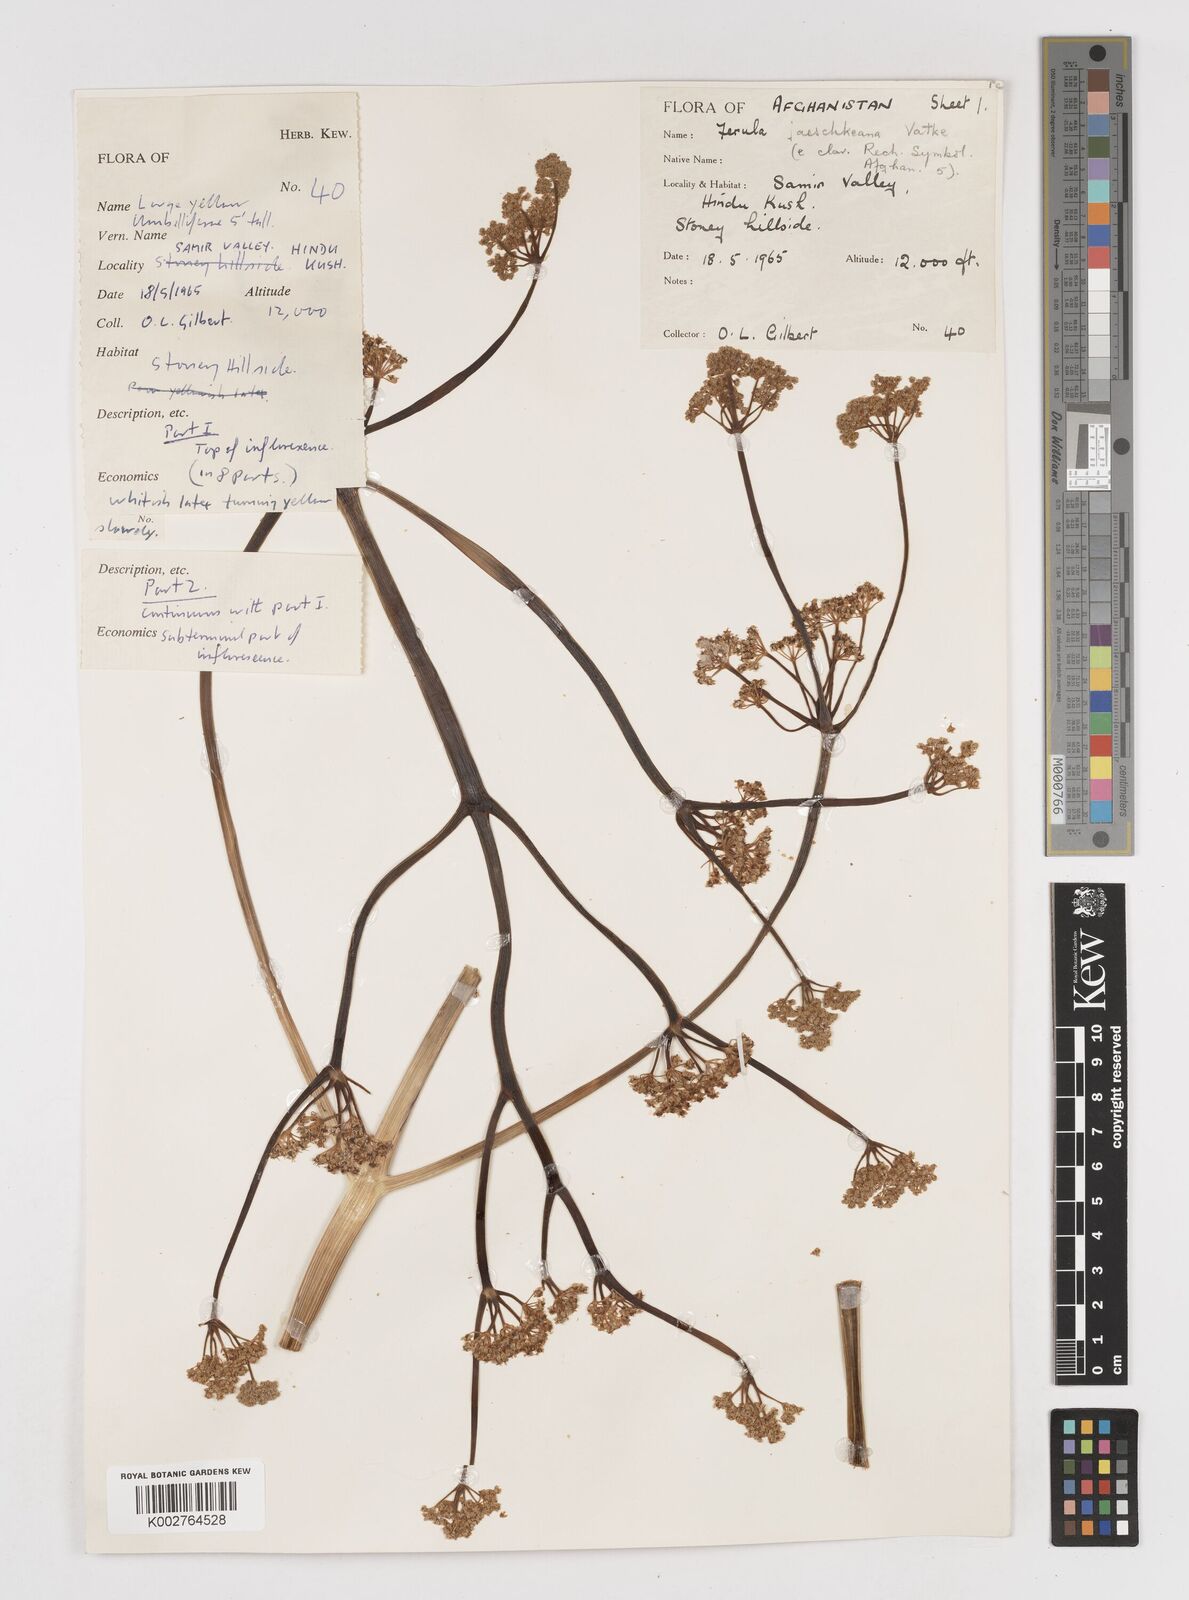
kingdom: Plantae
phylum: Tracheophyta
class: Magnoliopsida
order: Apiales
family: Apiaceae
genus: Ferula
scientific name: Ferula jaeschkeana
